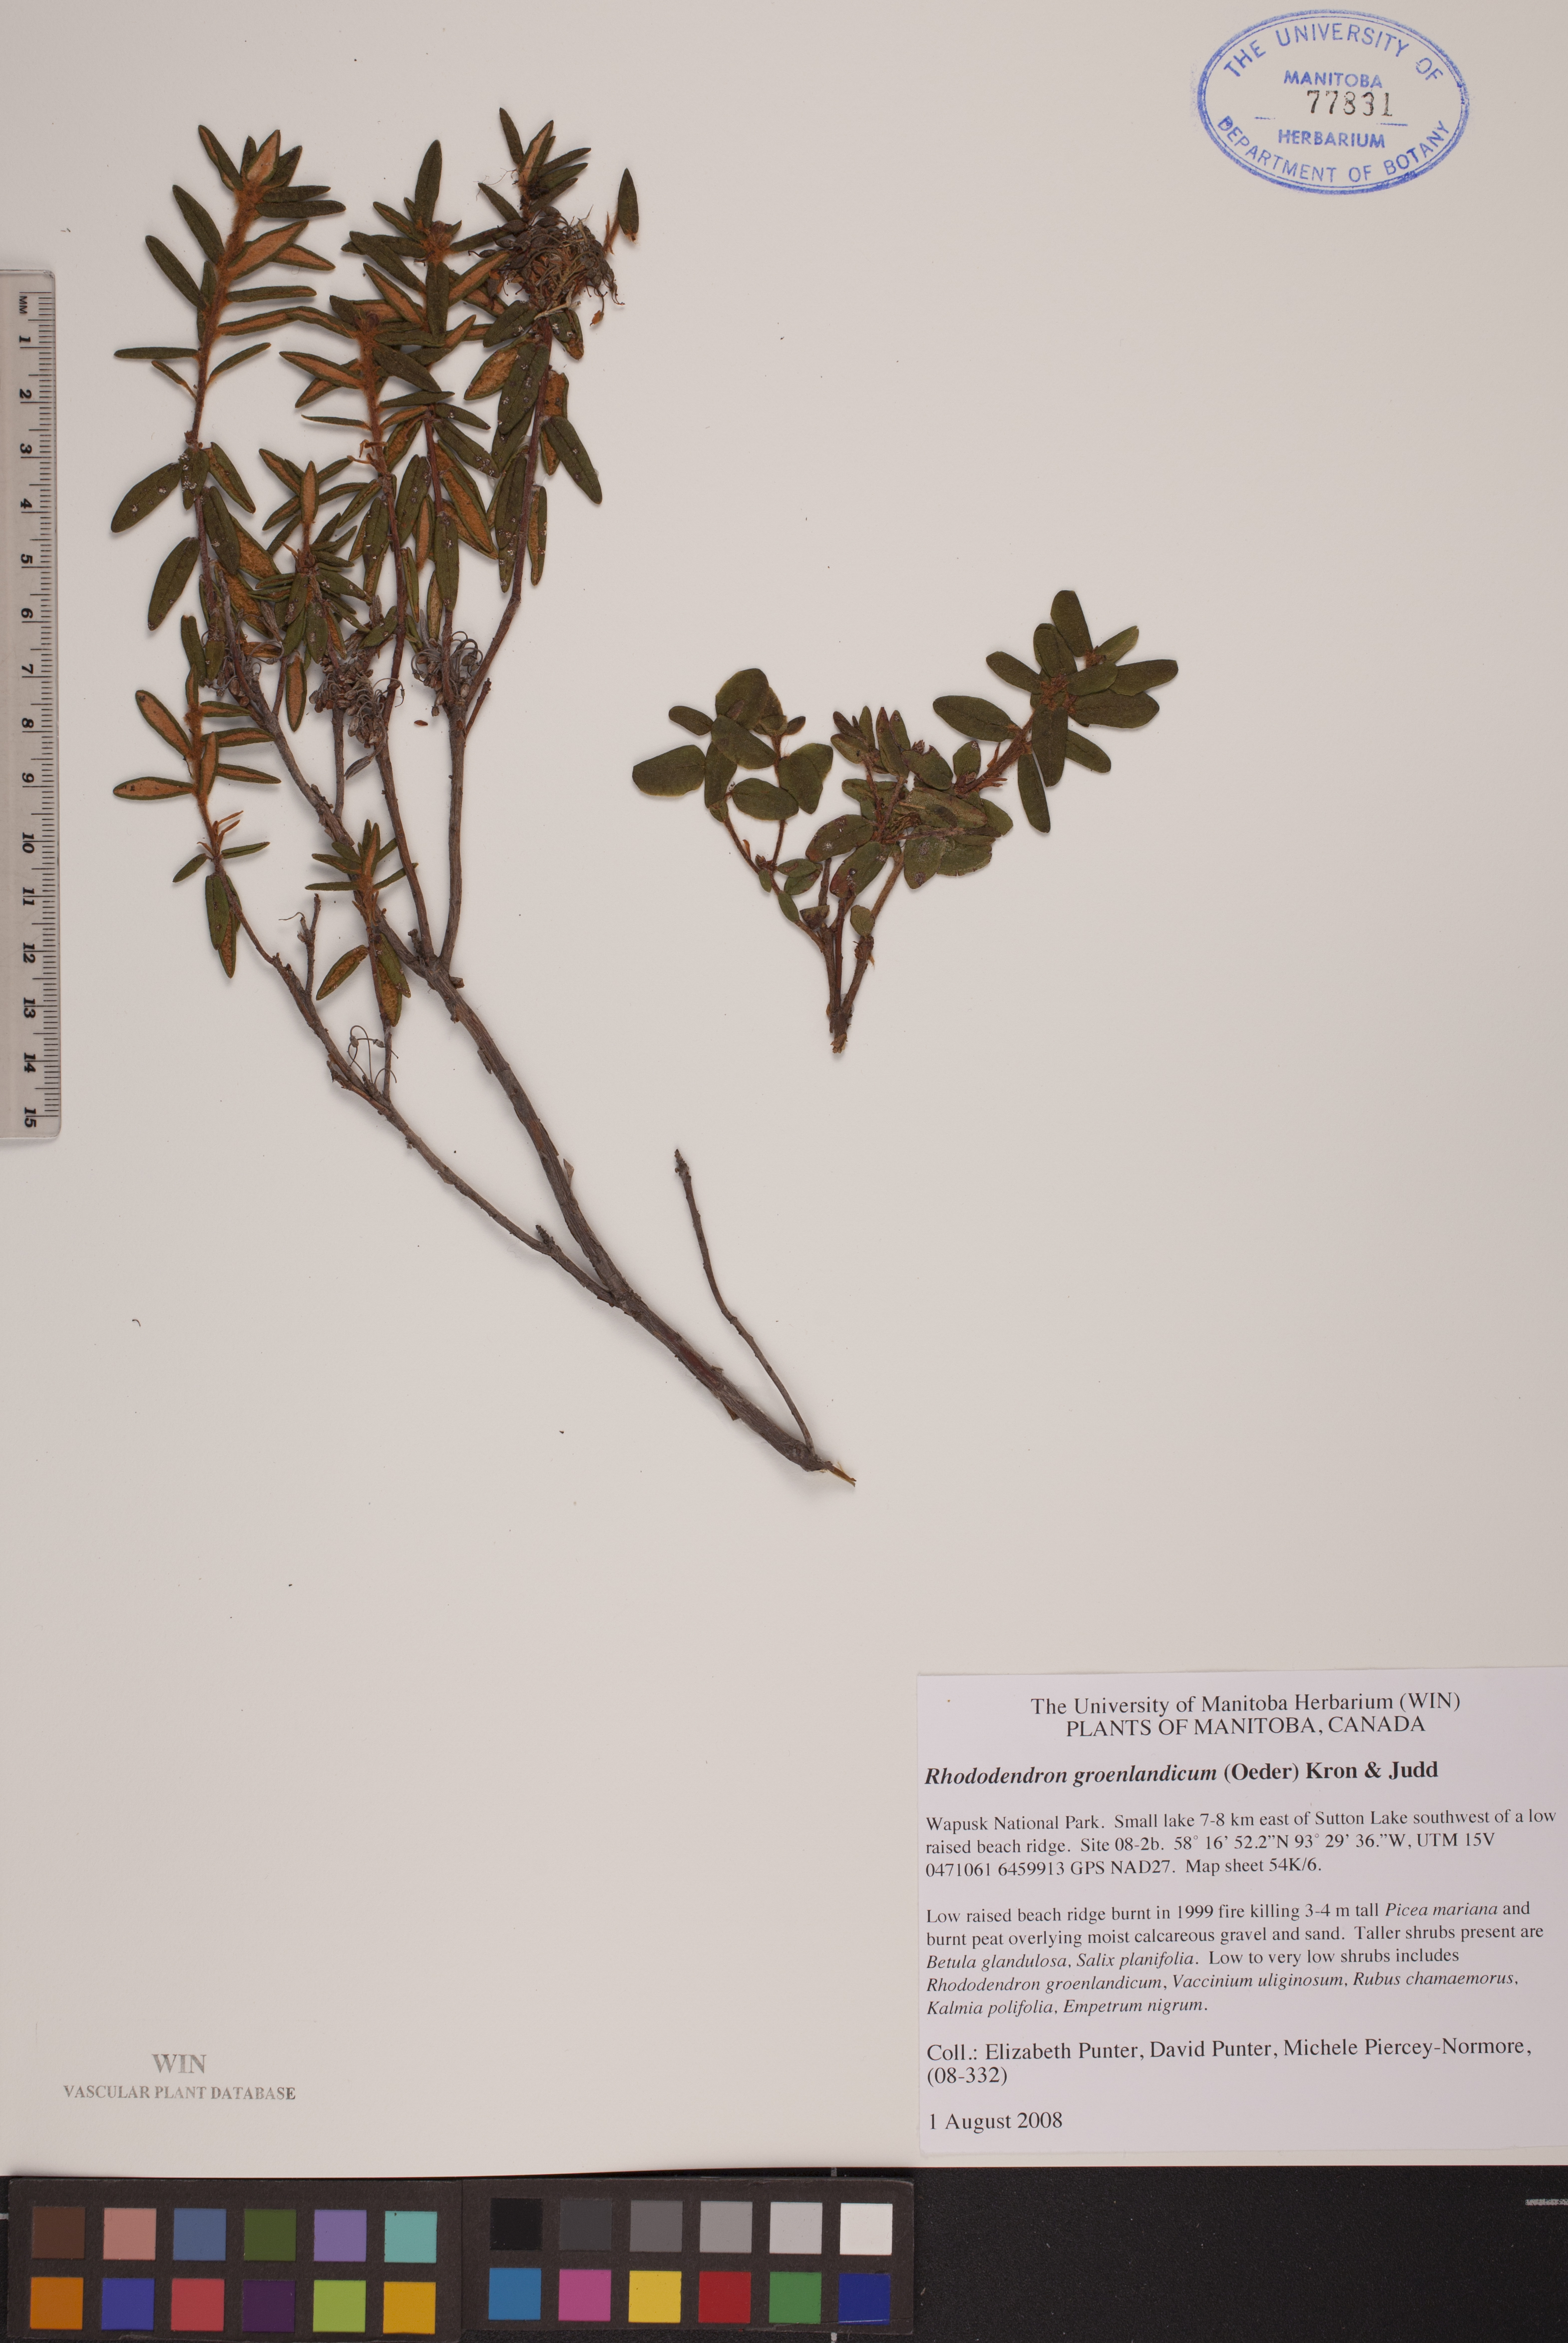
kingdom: Plantae
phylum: Tracheophyta
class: Magnoliopsida
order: Ericales
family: Ericaceae
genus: Rhododendron
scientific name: Rhododendron groenlandicum
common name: Bog labrador tea
